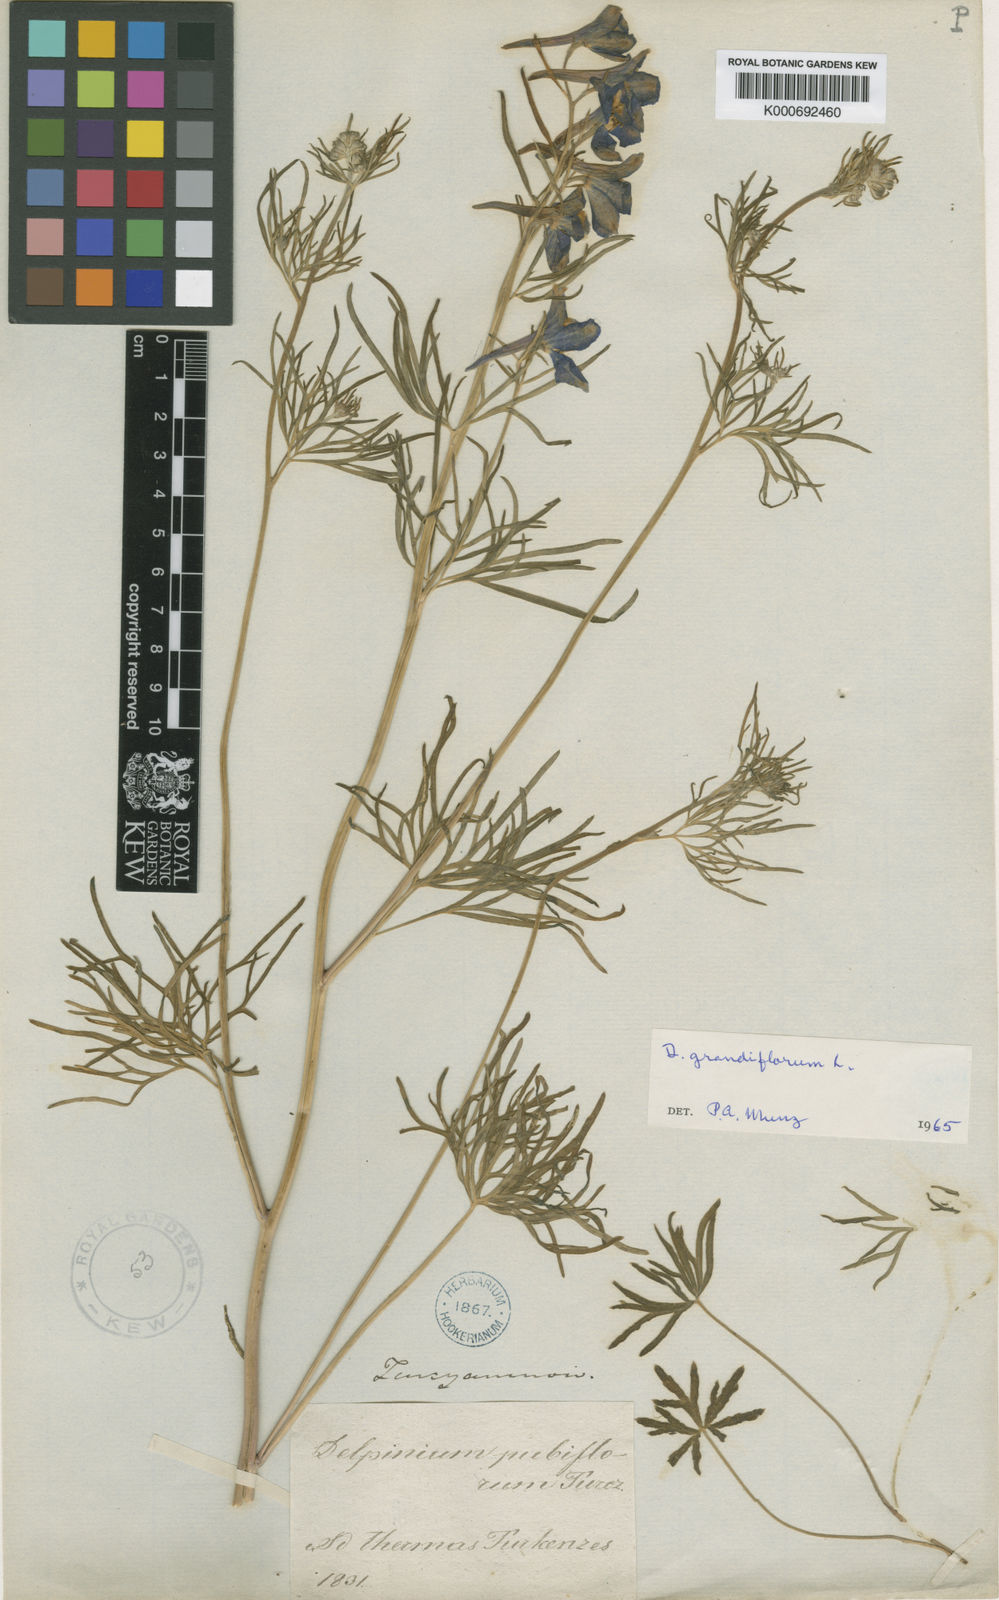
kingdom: Plantae
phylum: Tracheophyta
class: Magnoliopsida
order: Ranunculales
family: Ranunculaceae
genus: Delphinium
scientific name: Delphinium grandiflorum
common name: Siberian larkspur
